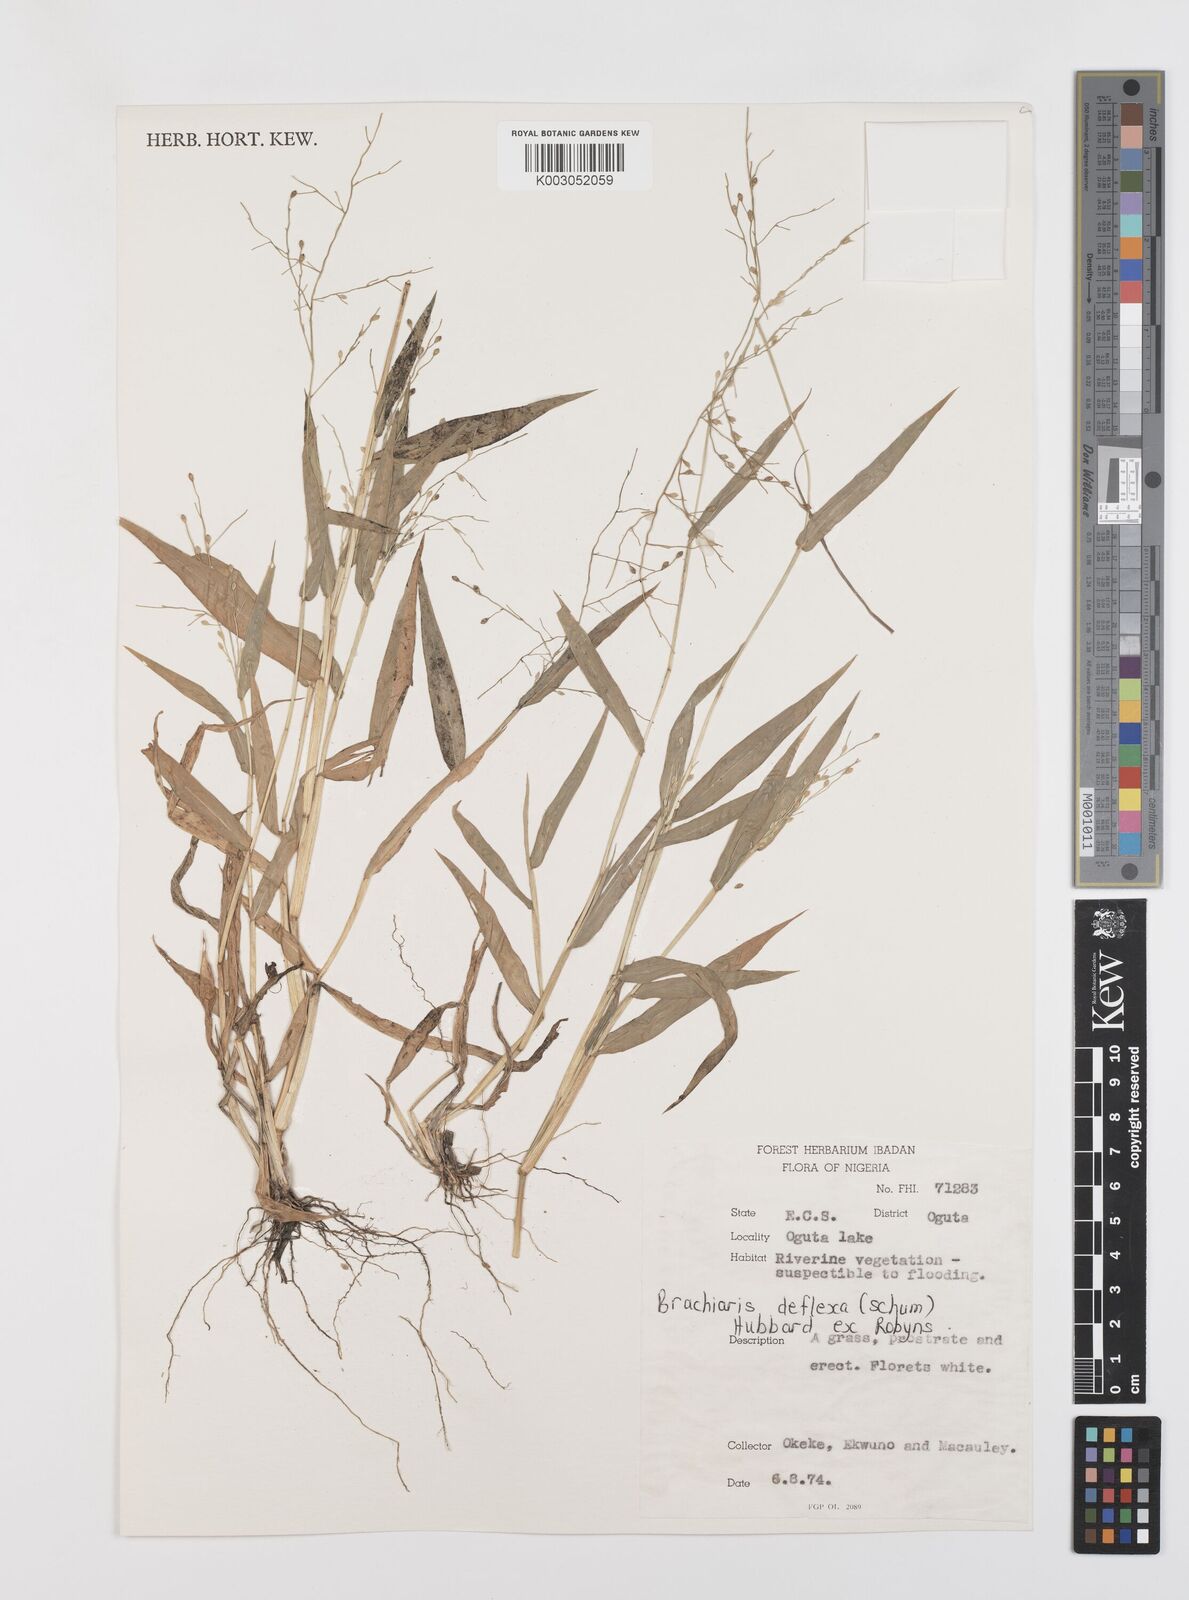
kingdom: Plantae
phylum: Tracheophyta
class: Liliopsida
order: Poales
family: Poaceae
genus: Urochloa
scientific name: Urochloa deflexa
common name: Guinea millet
